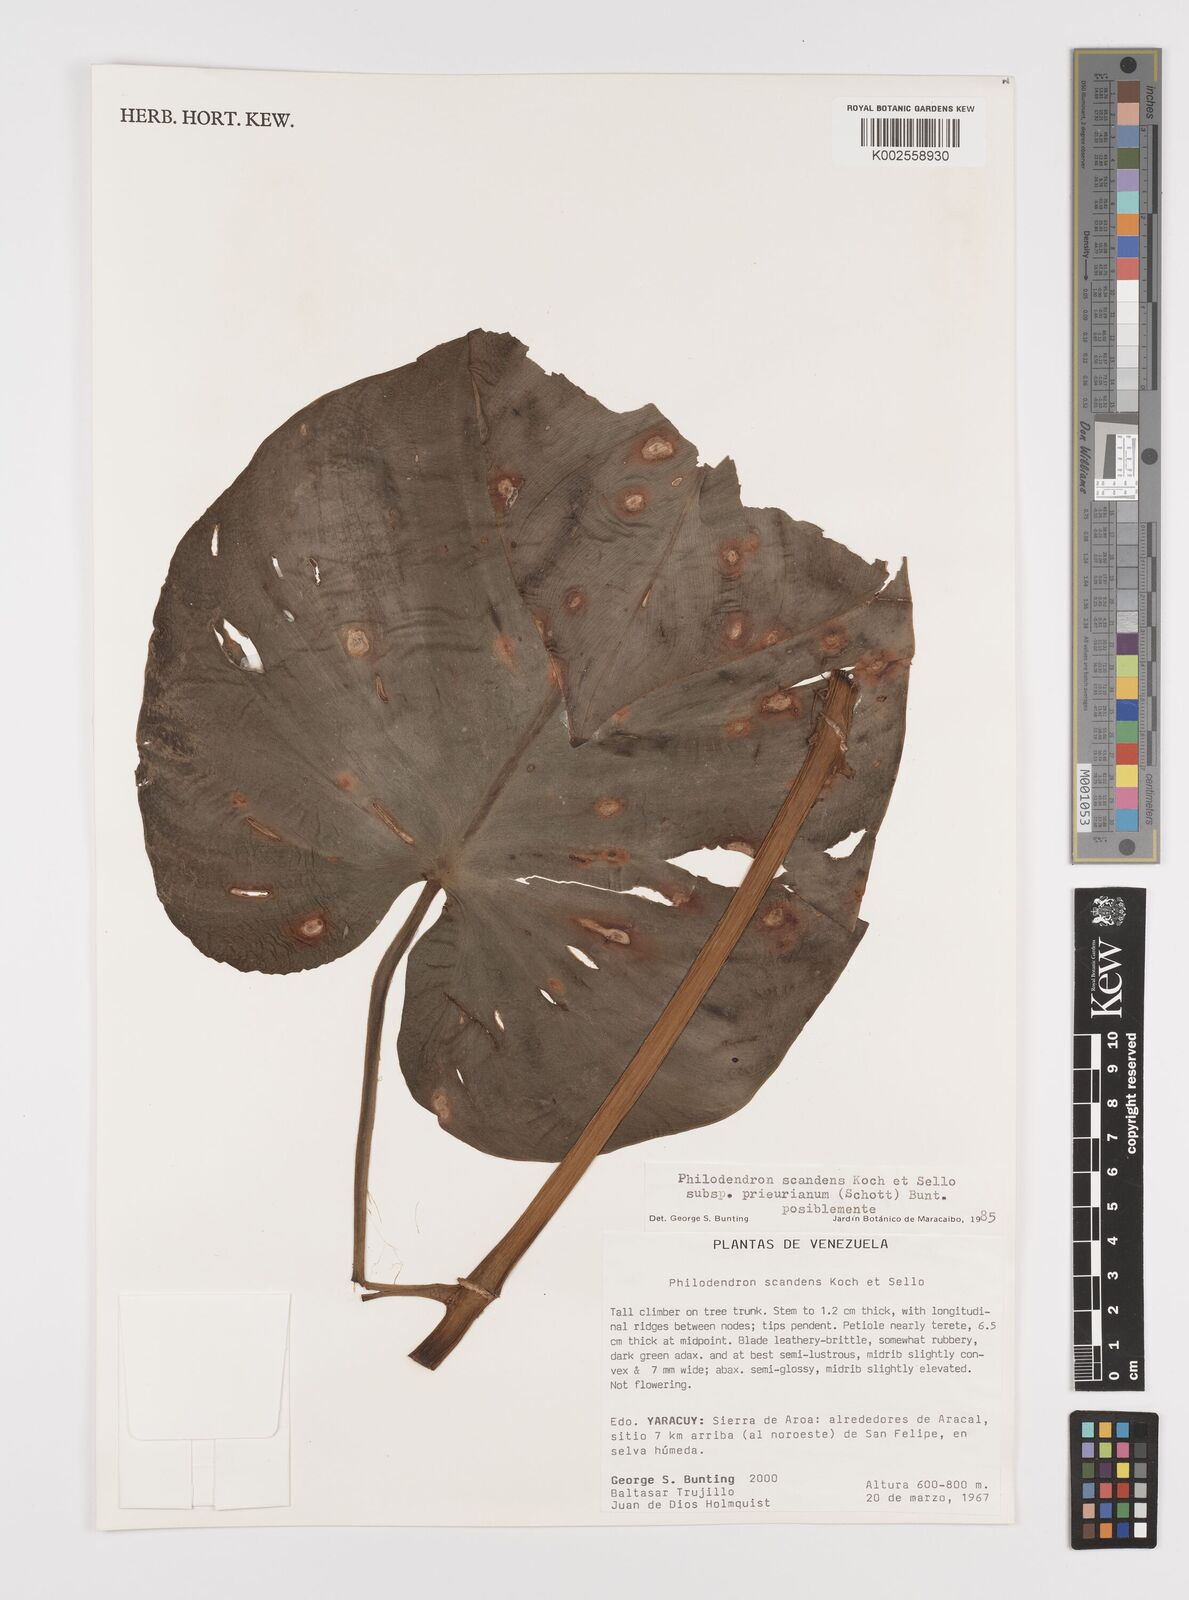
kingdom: Plantae
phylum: Tracheophyta
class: Liliopsida
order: Alismatales
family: Araceae
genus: Philodendron
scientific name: Philodendron hederaceum
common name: Vilevine
